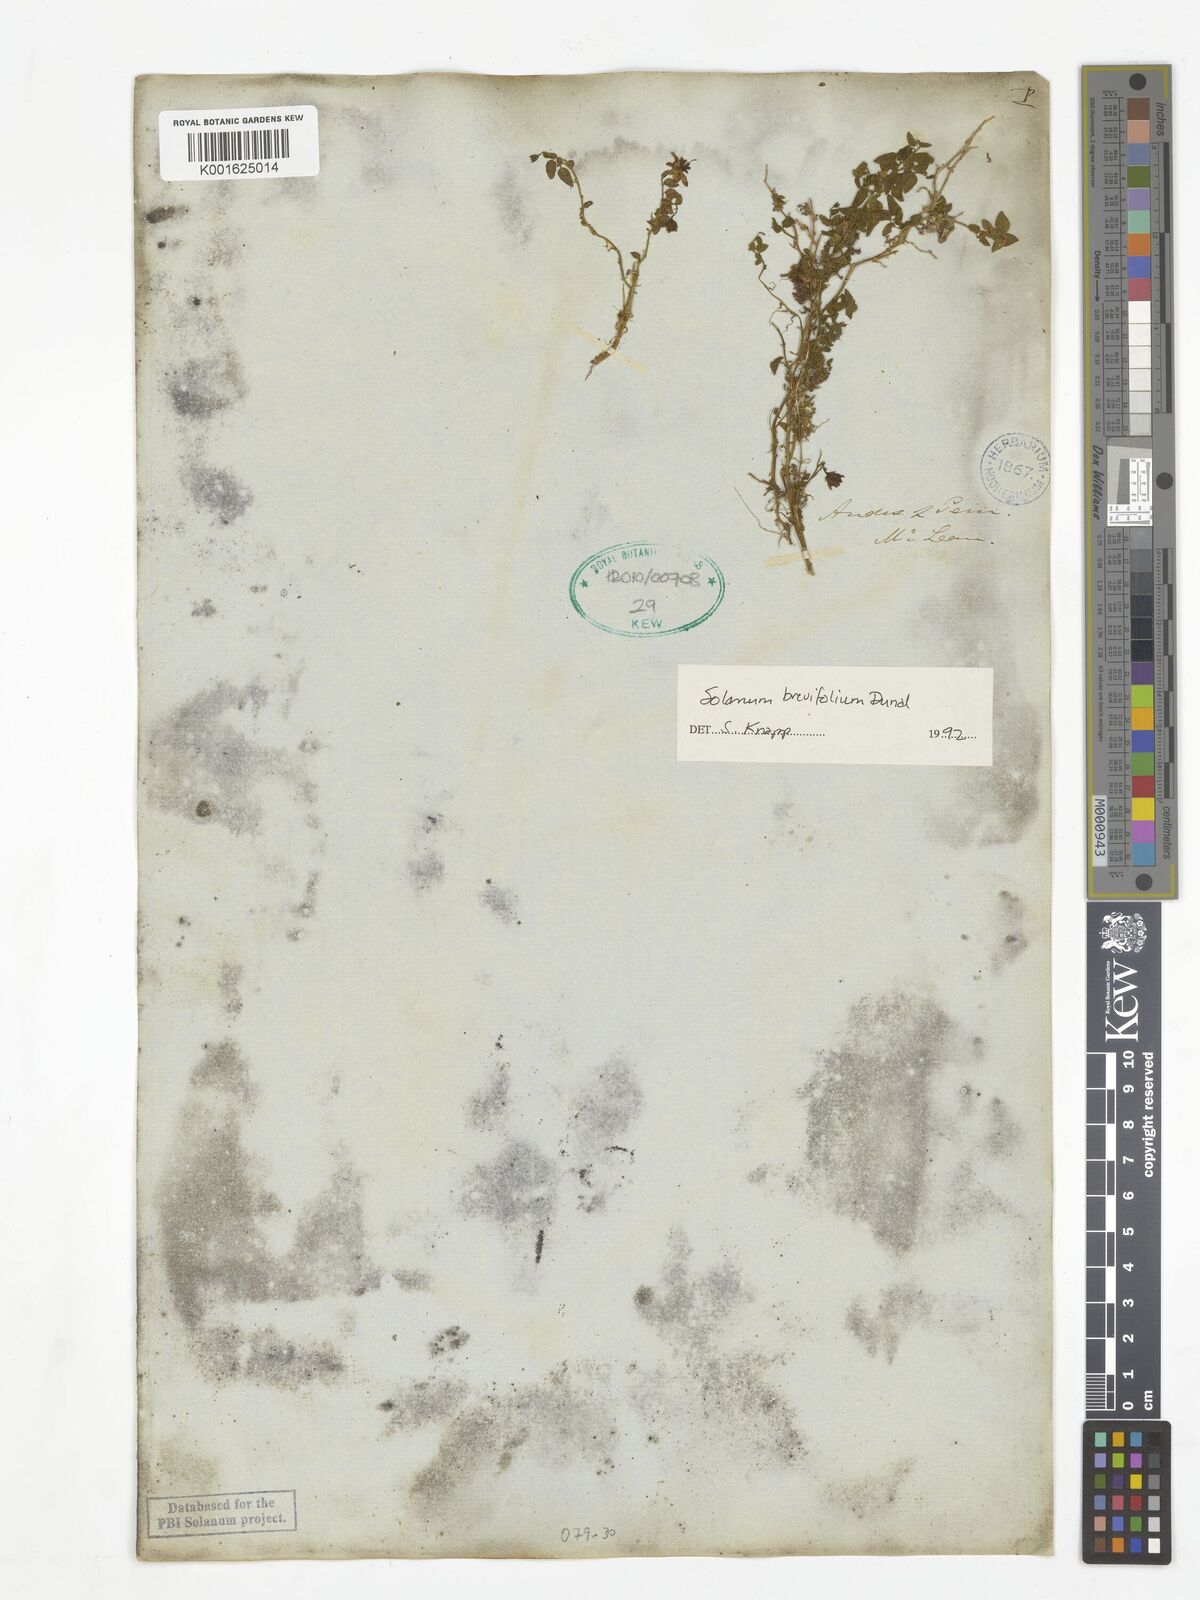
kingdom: Plantae
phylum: Tracheophyta
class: Magnoliopsida
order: Solanales
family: Solanaceae
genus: Solanum
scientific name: Solanum brevifolium
